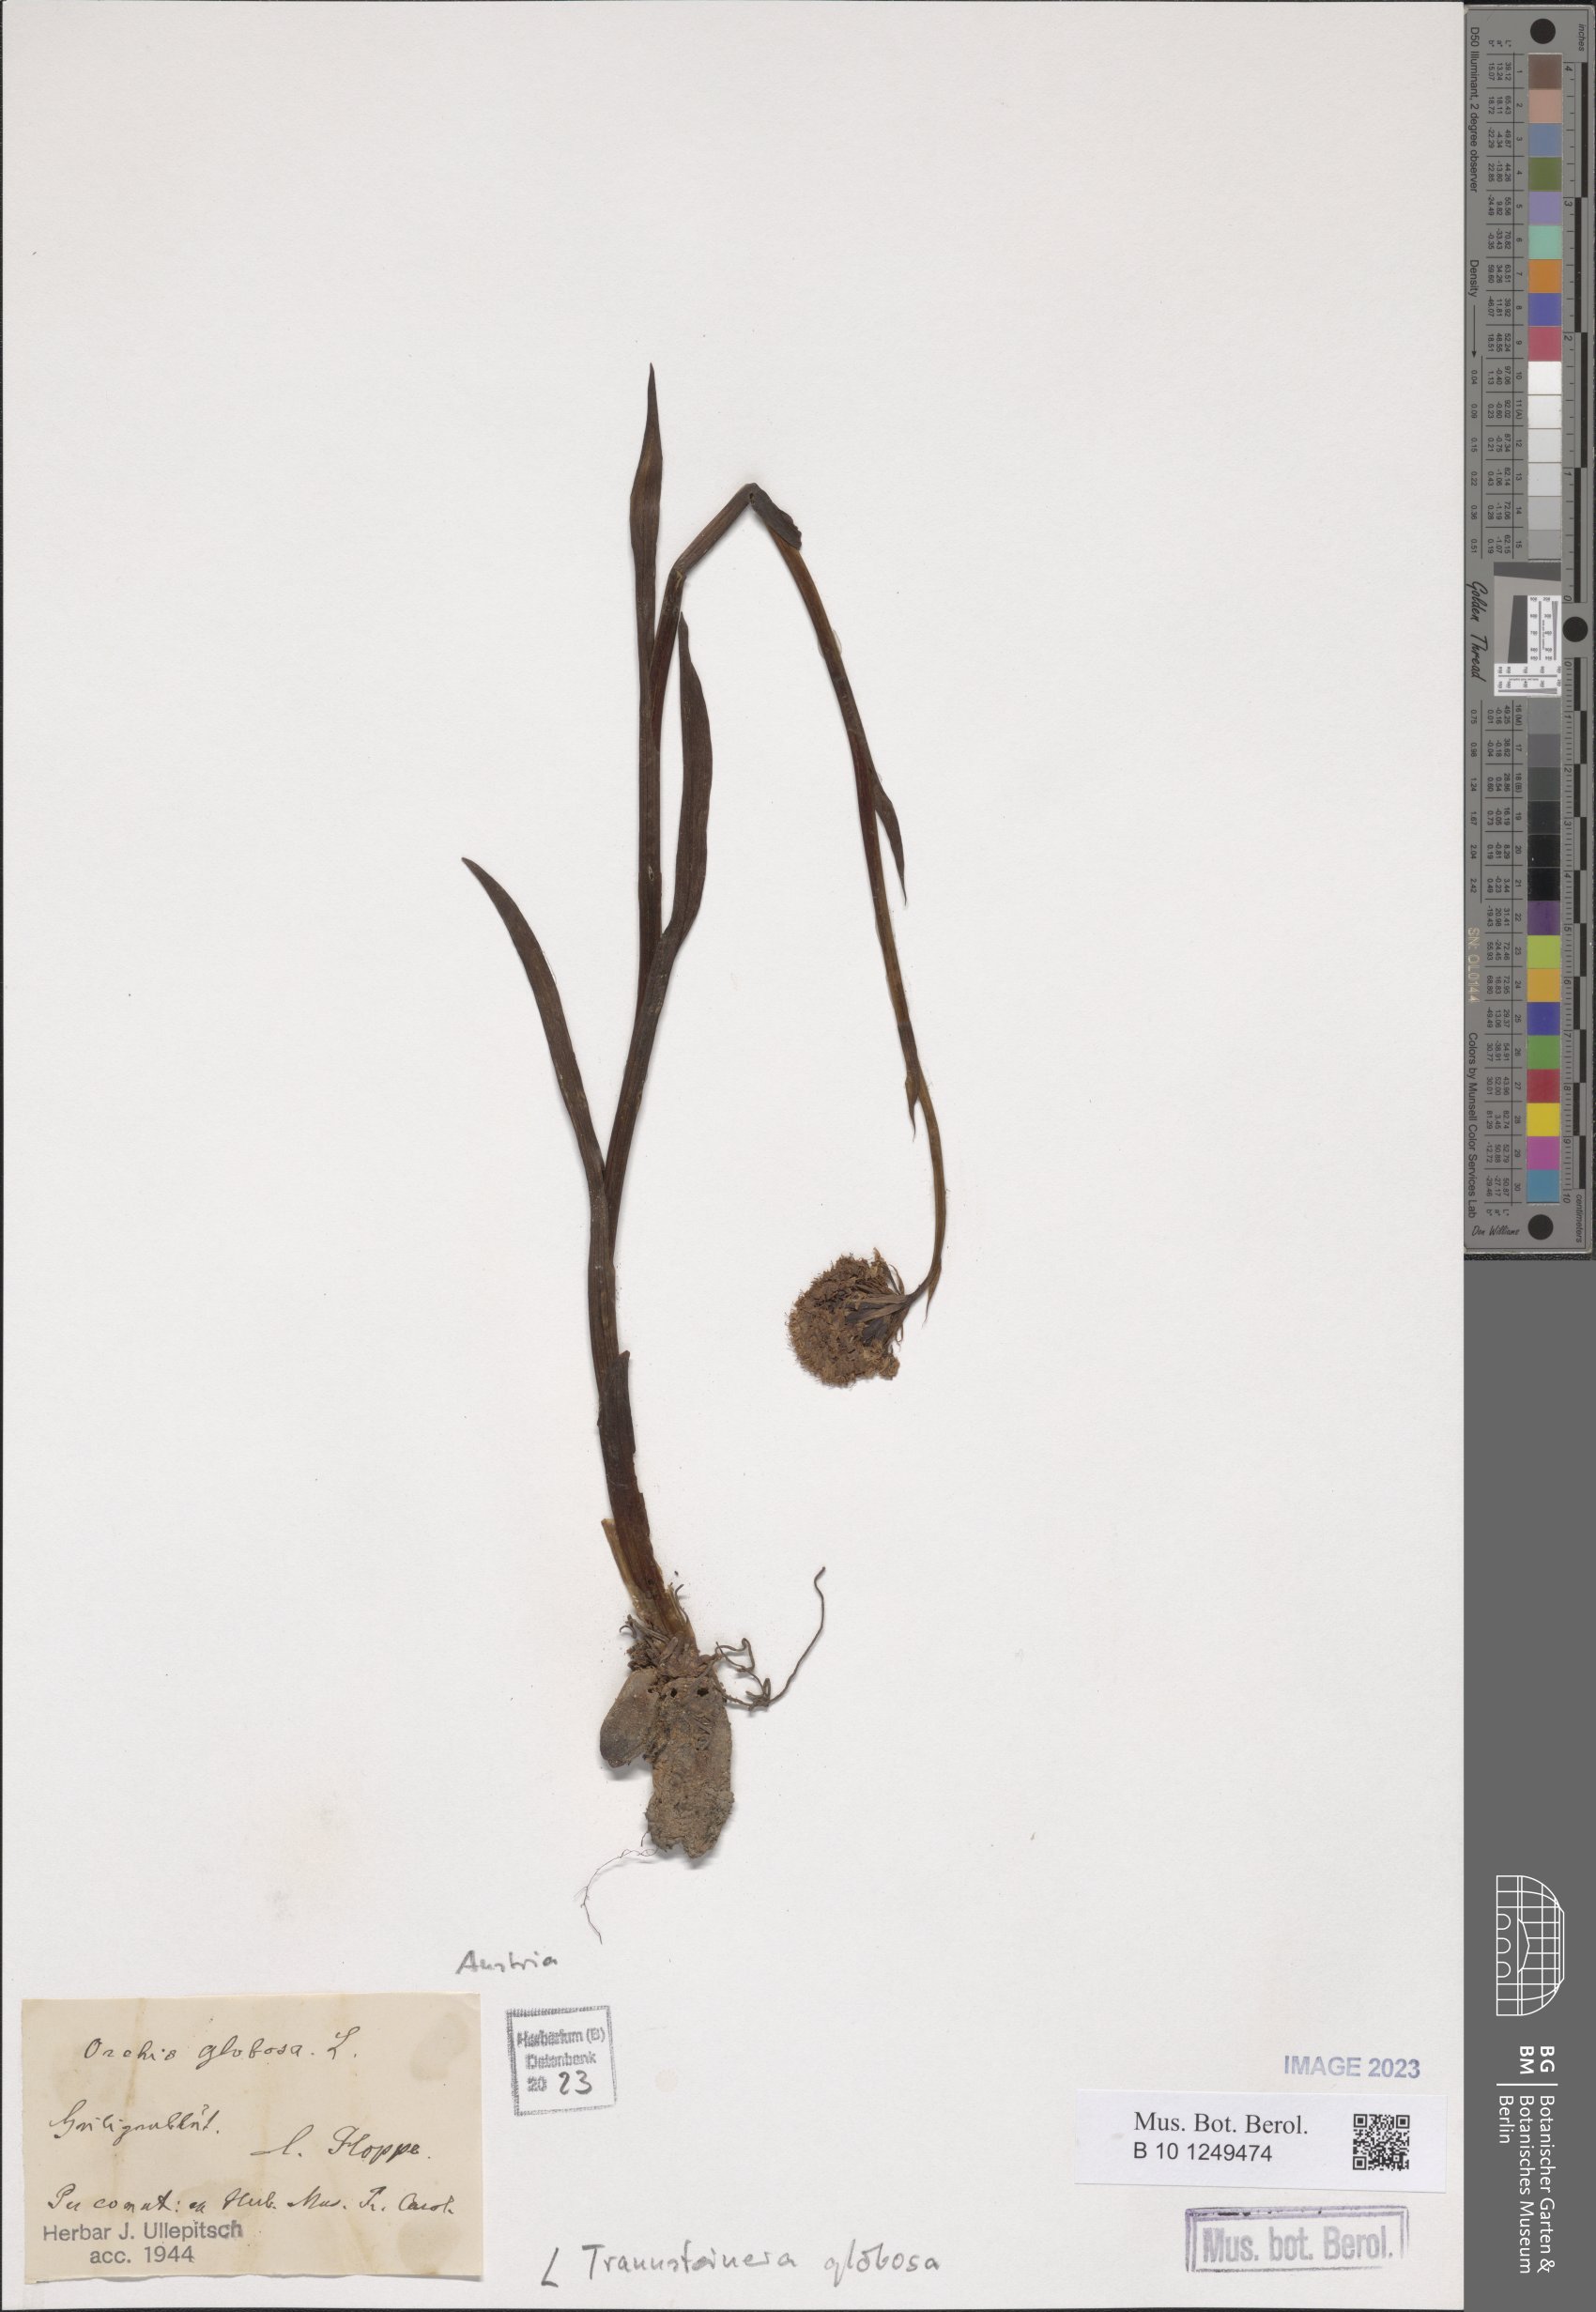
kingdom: Plantae
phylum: Tracheophyta
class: Liliopsida
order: Asparagales
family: Orchidaceae
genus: Traunsteinera
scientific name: Traunsteinera globosa
